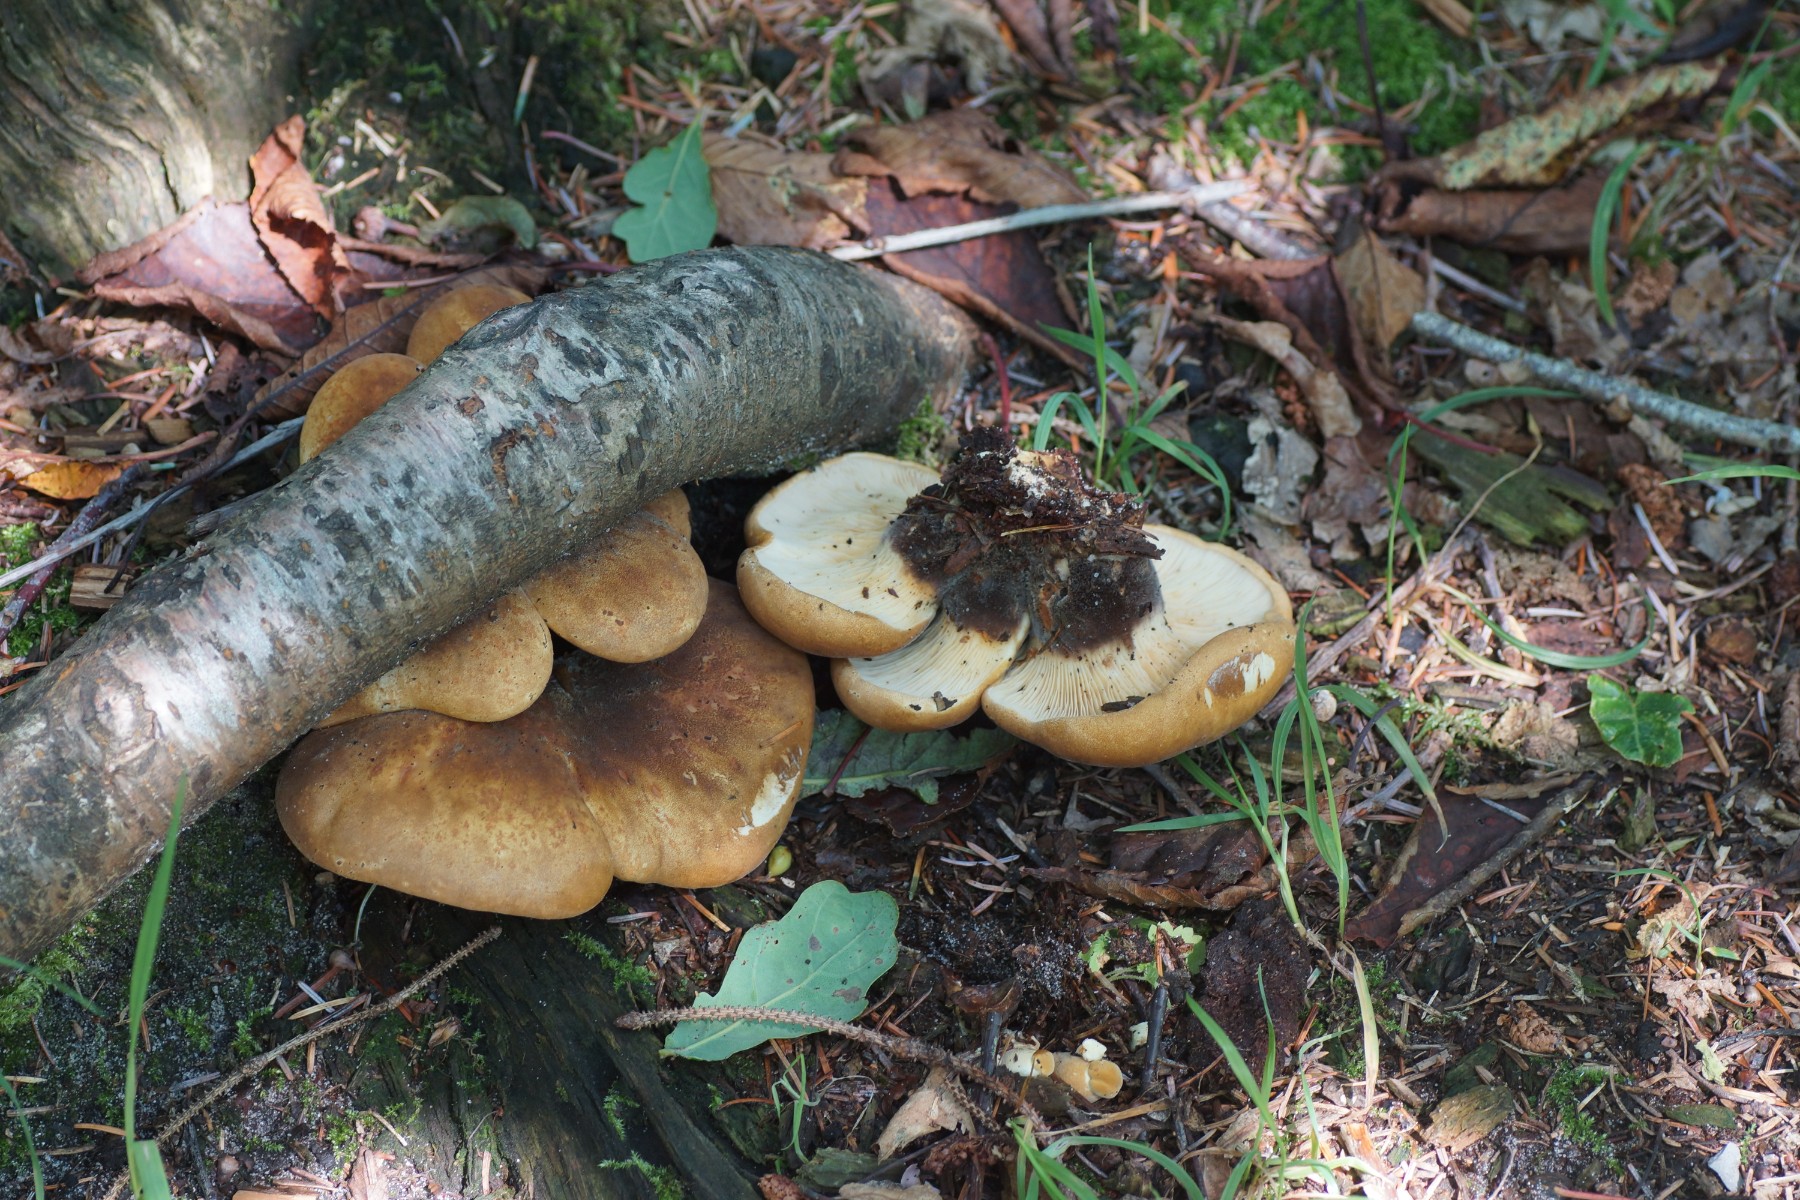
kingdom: Fungi
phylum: Basidiomycota
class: Agaricomycetes
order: Boletales
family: Tapinellaceae
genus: Tapinella
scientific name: Tapinella atrotomentosa
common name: sortfiltet viftesvamp
